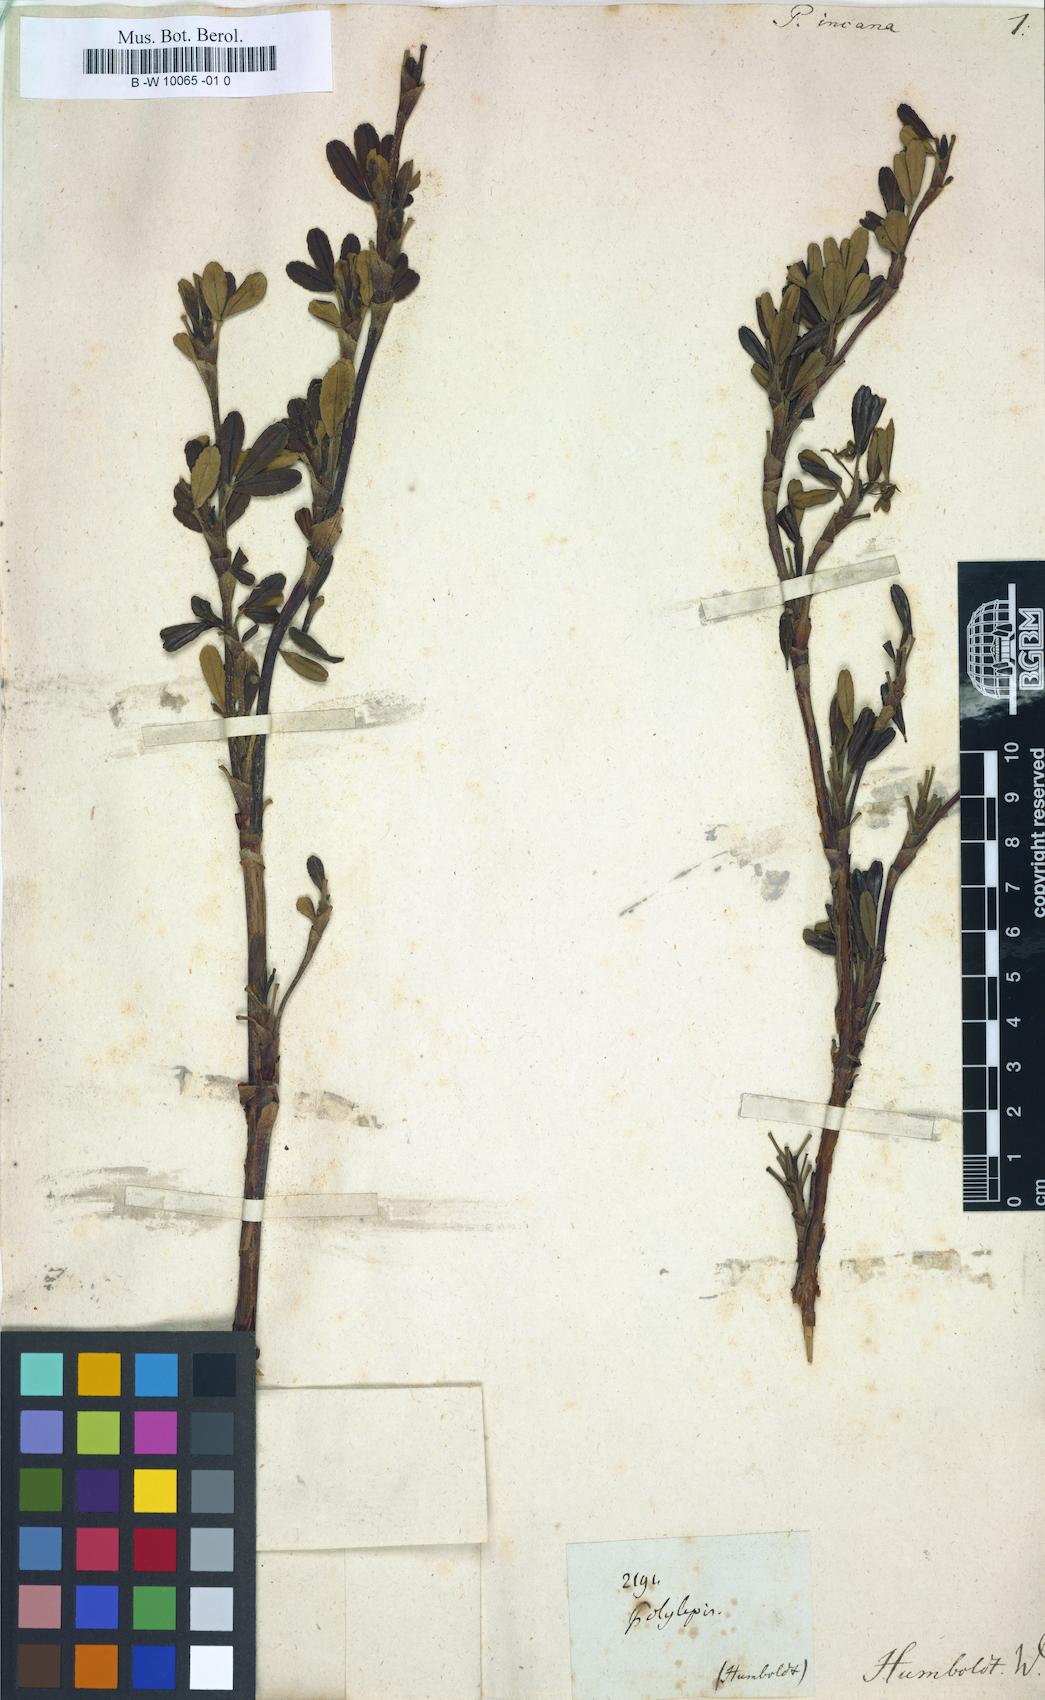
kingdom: Plantae
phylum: Tracheophyta
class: Magnoliopsida
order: Rosales
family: Rosaceae
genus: Polylepis
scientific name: Polylepis incana
